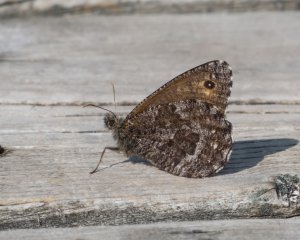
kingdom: Animalia
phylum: Arthropoda
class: Insecta
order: Lepidoptera
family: Nymphalidae
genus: Oeneis
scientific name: Oeneis jutta
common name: Jutta Arctic
